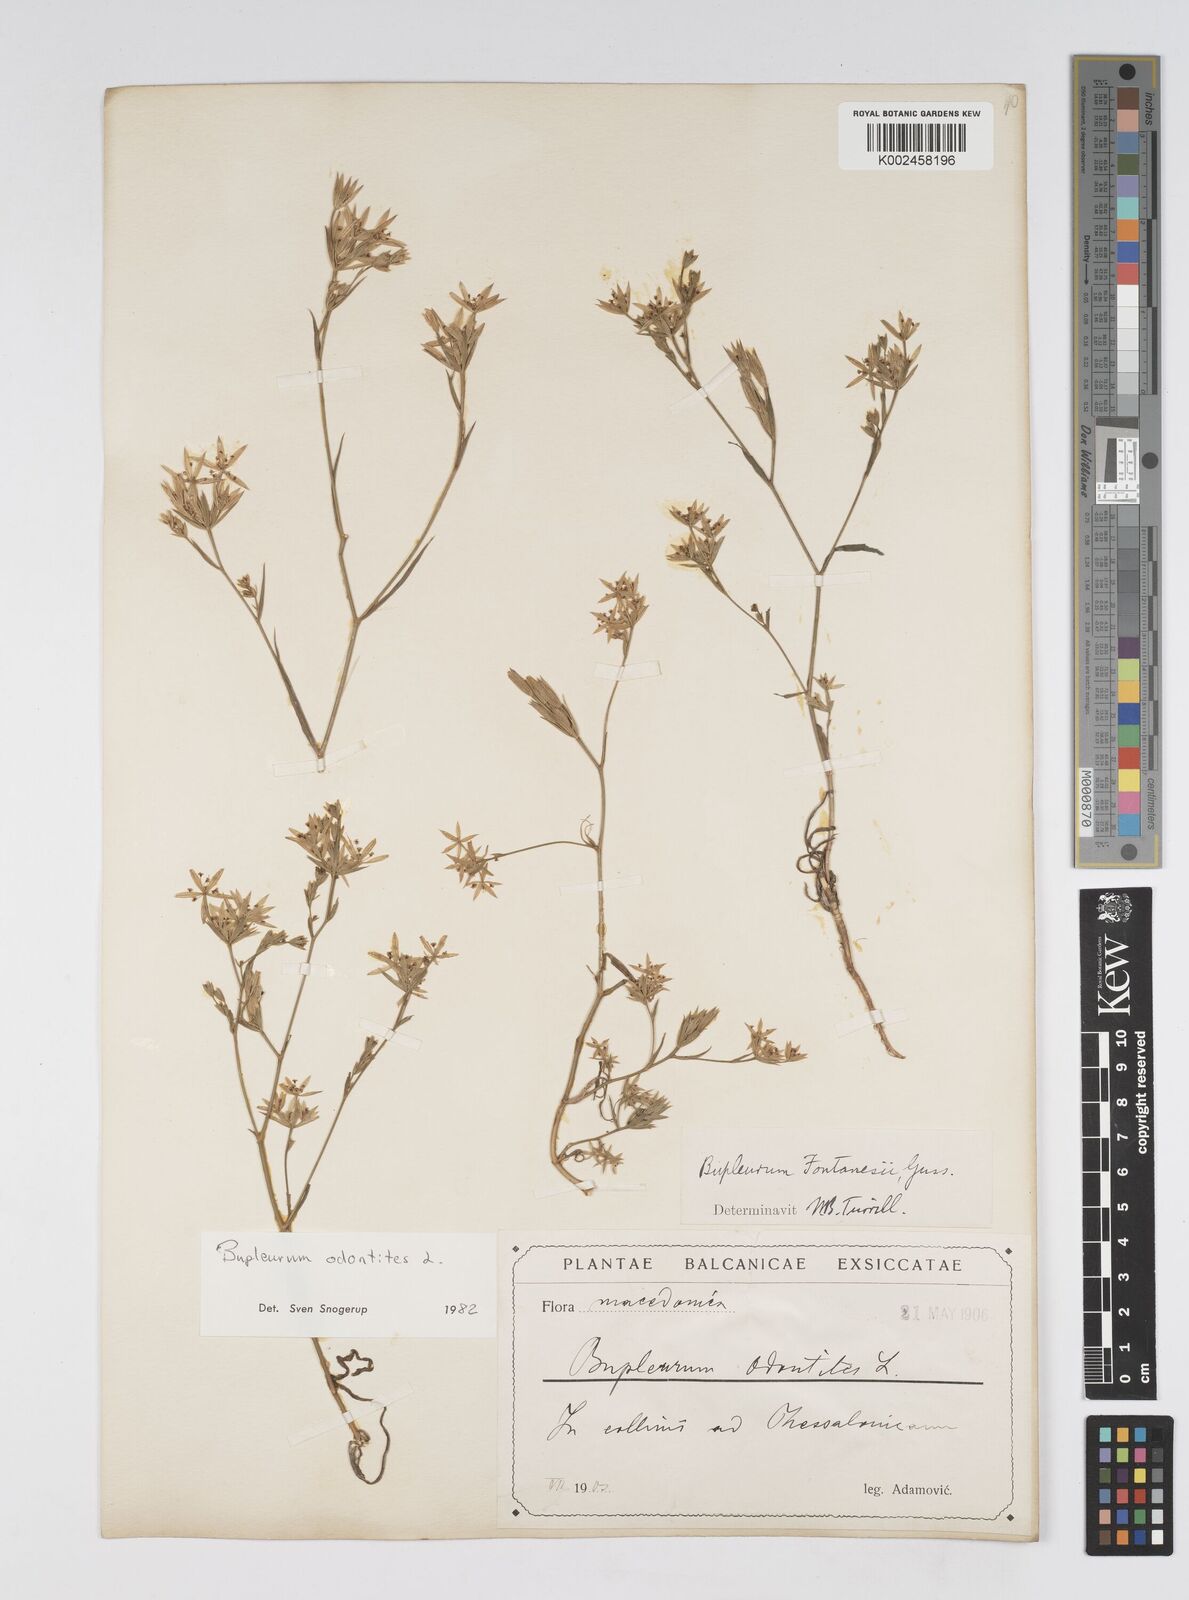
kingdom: Plantae
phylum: Tracheophyta
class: Magnoliopsida
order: Apiales
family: Apiaceae
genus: Bupleurum
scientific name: Bupleurum odontites
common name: Narrowleaf thorow wax
